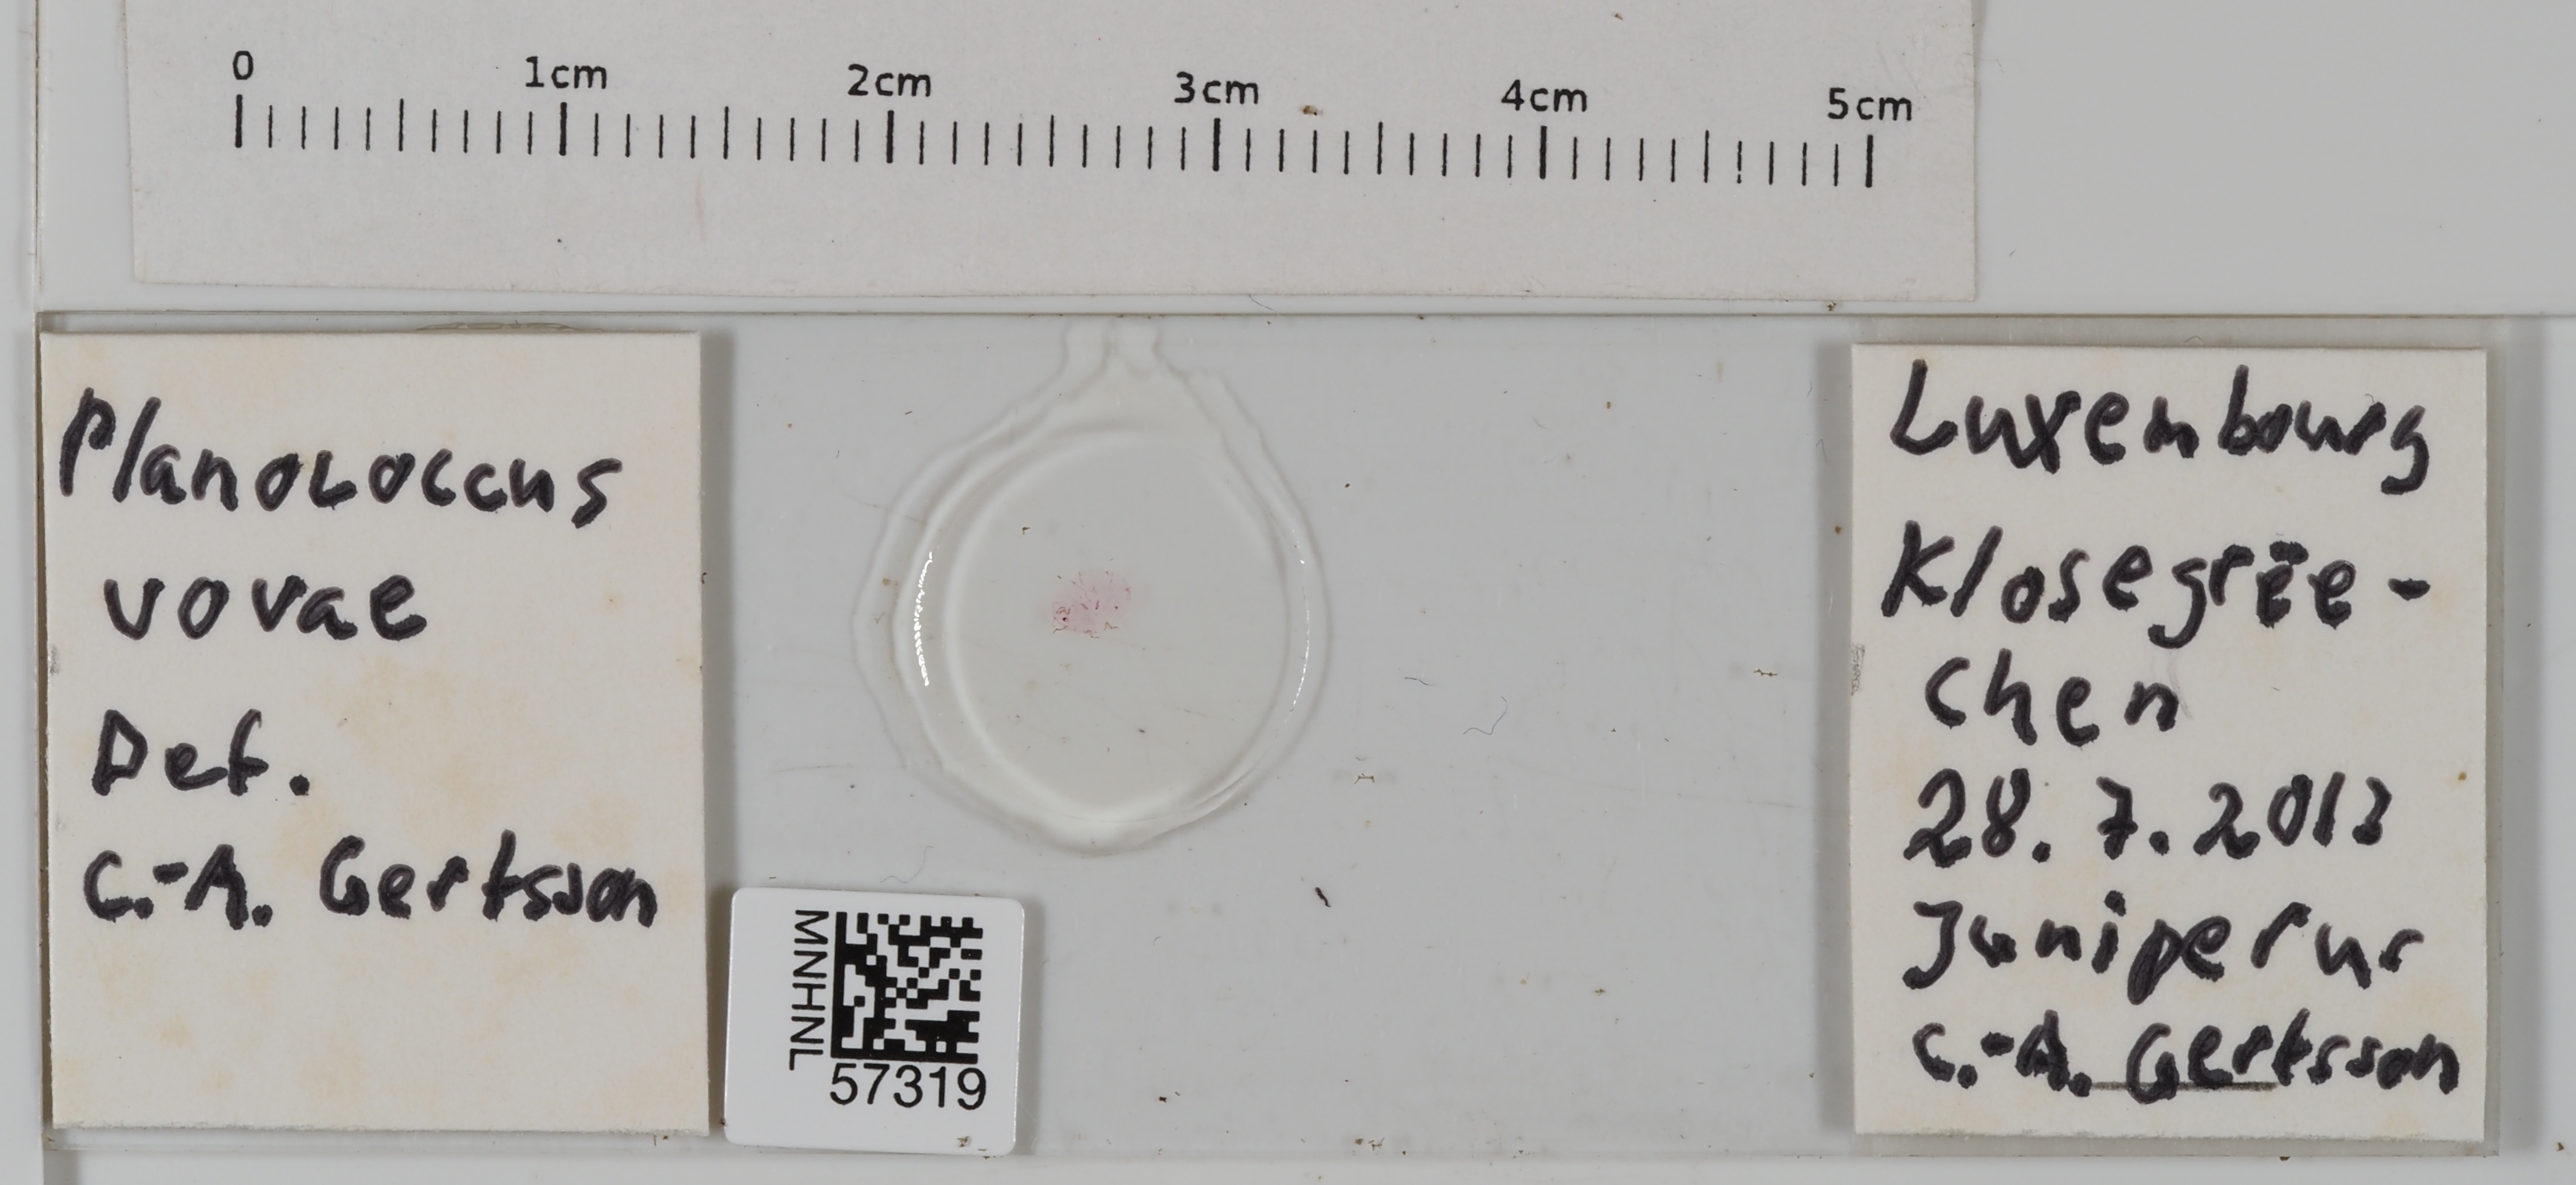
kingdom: Animalia
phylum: Arthropoda
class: Insecta
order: Hemiptera
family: Pseudococcidae
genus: Planococcus
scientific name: Planococcus vovae
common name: Nassonov's mealybug
